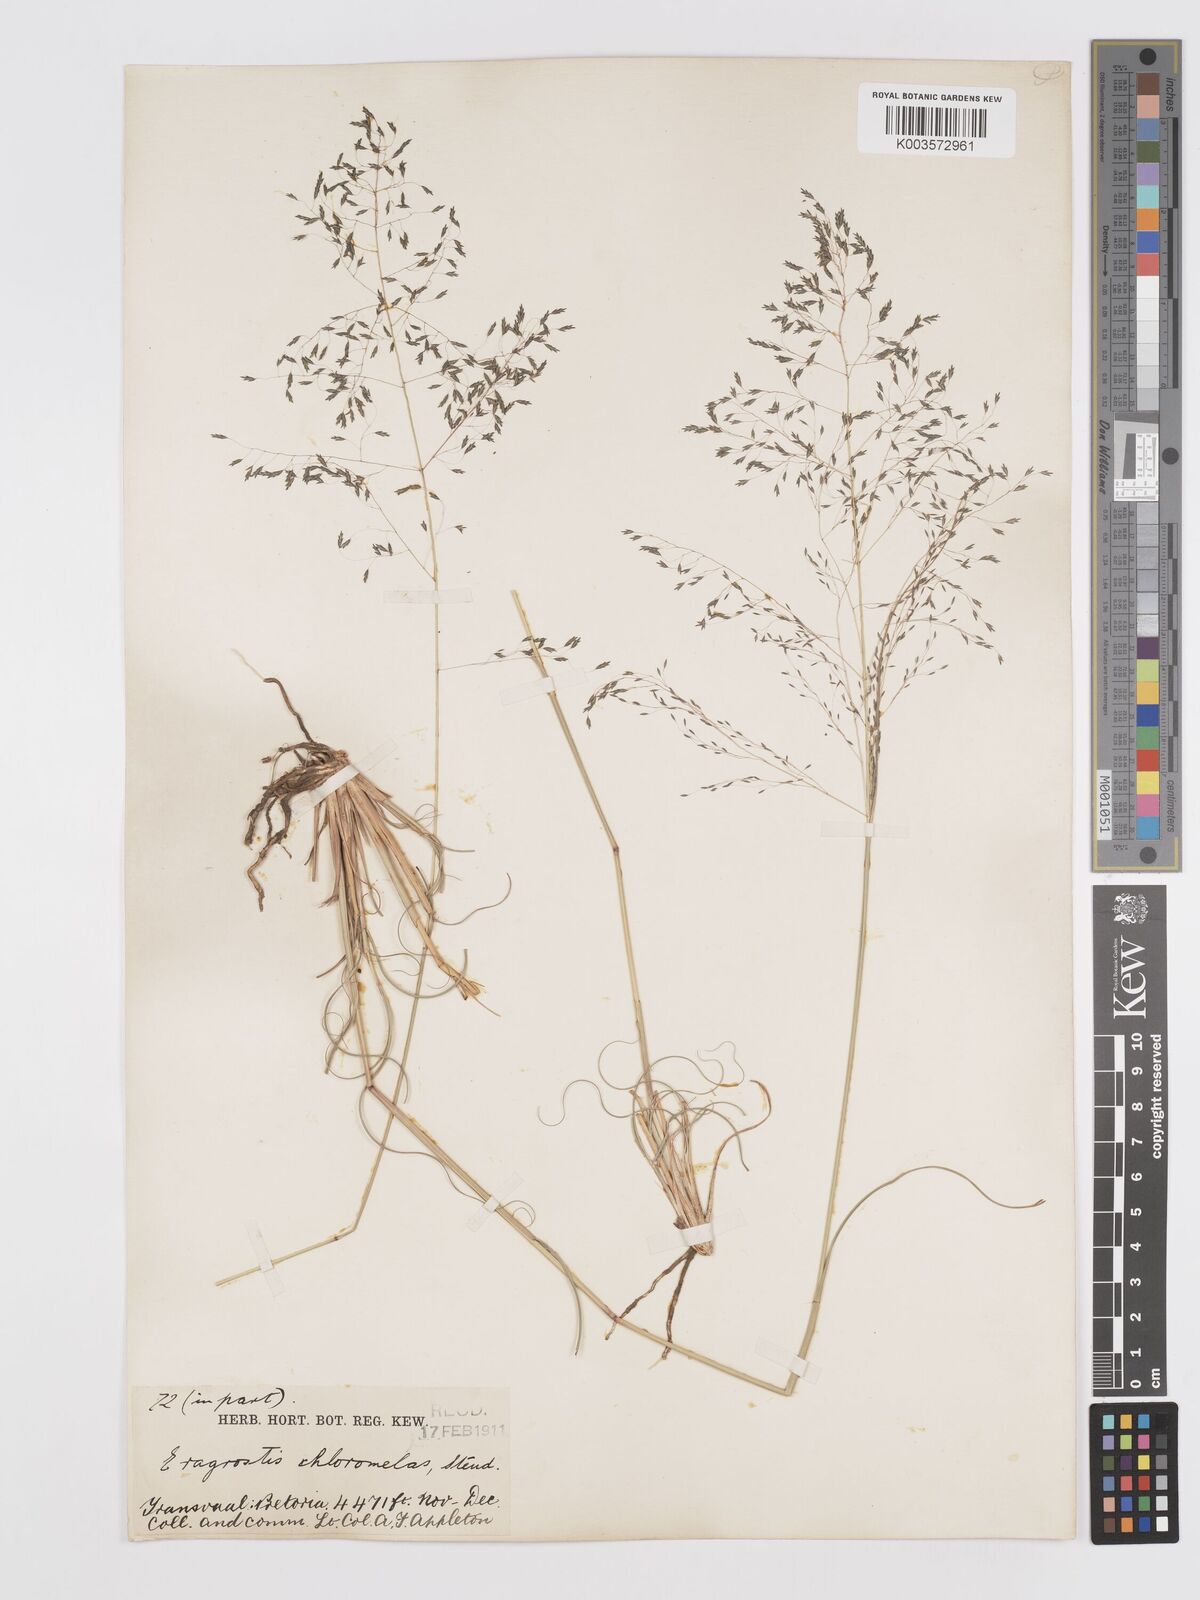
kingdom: Plantae
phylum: Tracheophyta
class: Liliopsida
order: Poales
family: Poaceae
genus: Eragrostis
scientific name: Eragrostis curvula
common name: African love-grass
